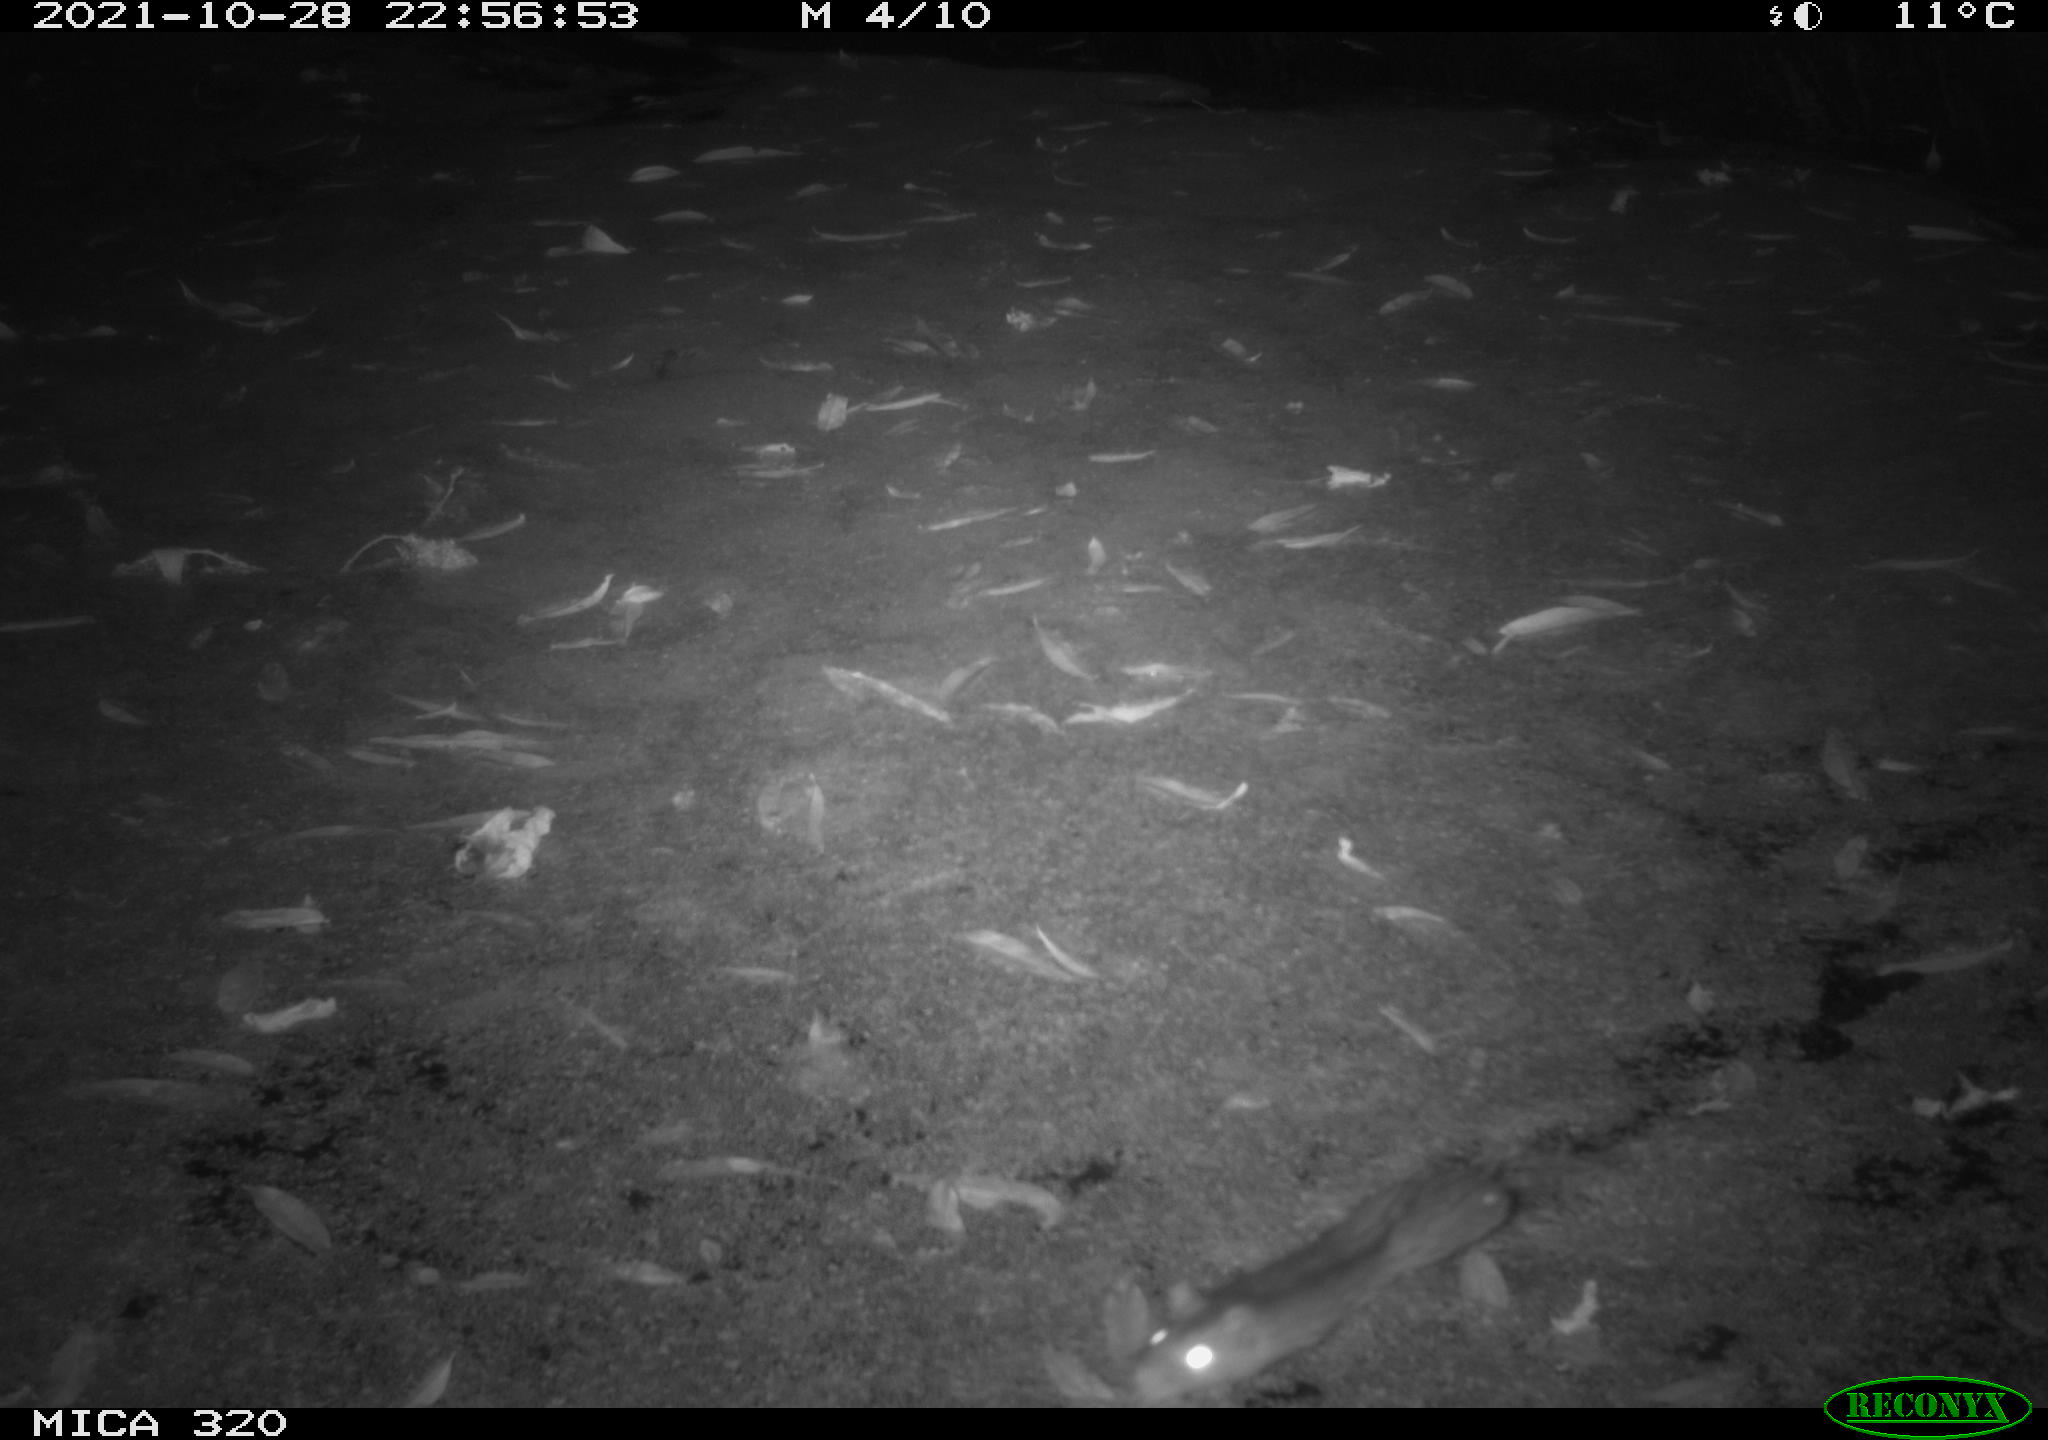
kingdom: Animalia
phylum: Chordata
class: Mammalia
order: Rodentia
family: Muridae
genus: Rattus
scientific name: Rattus norvegicus
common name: Brown rat
